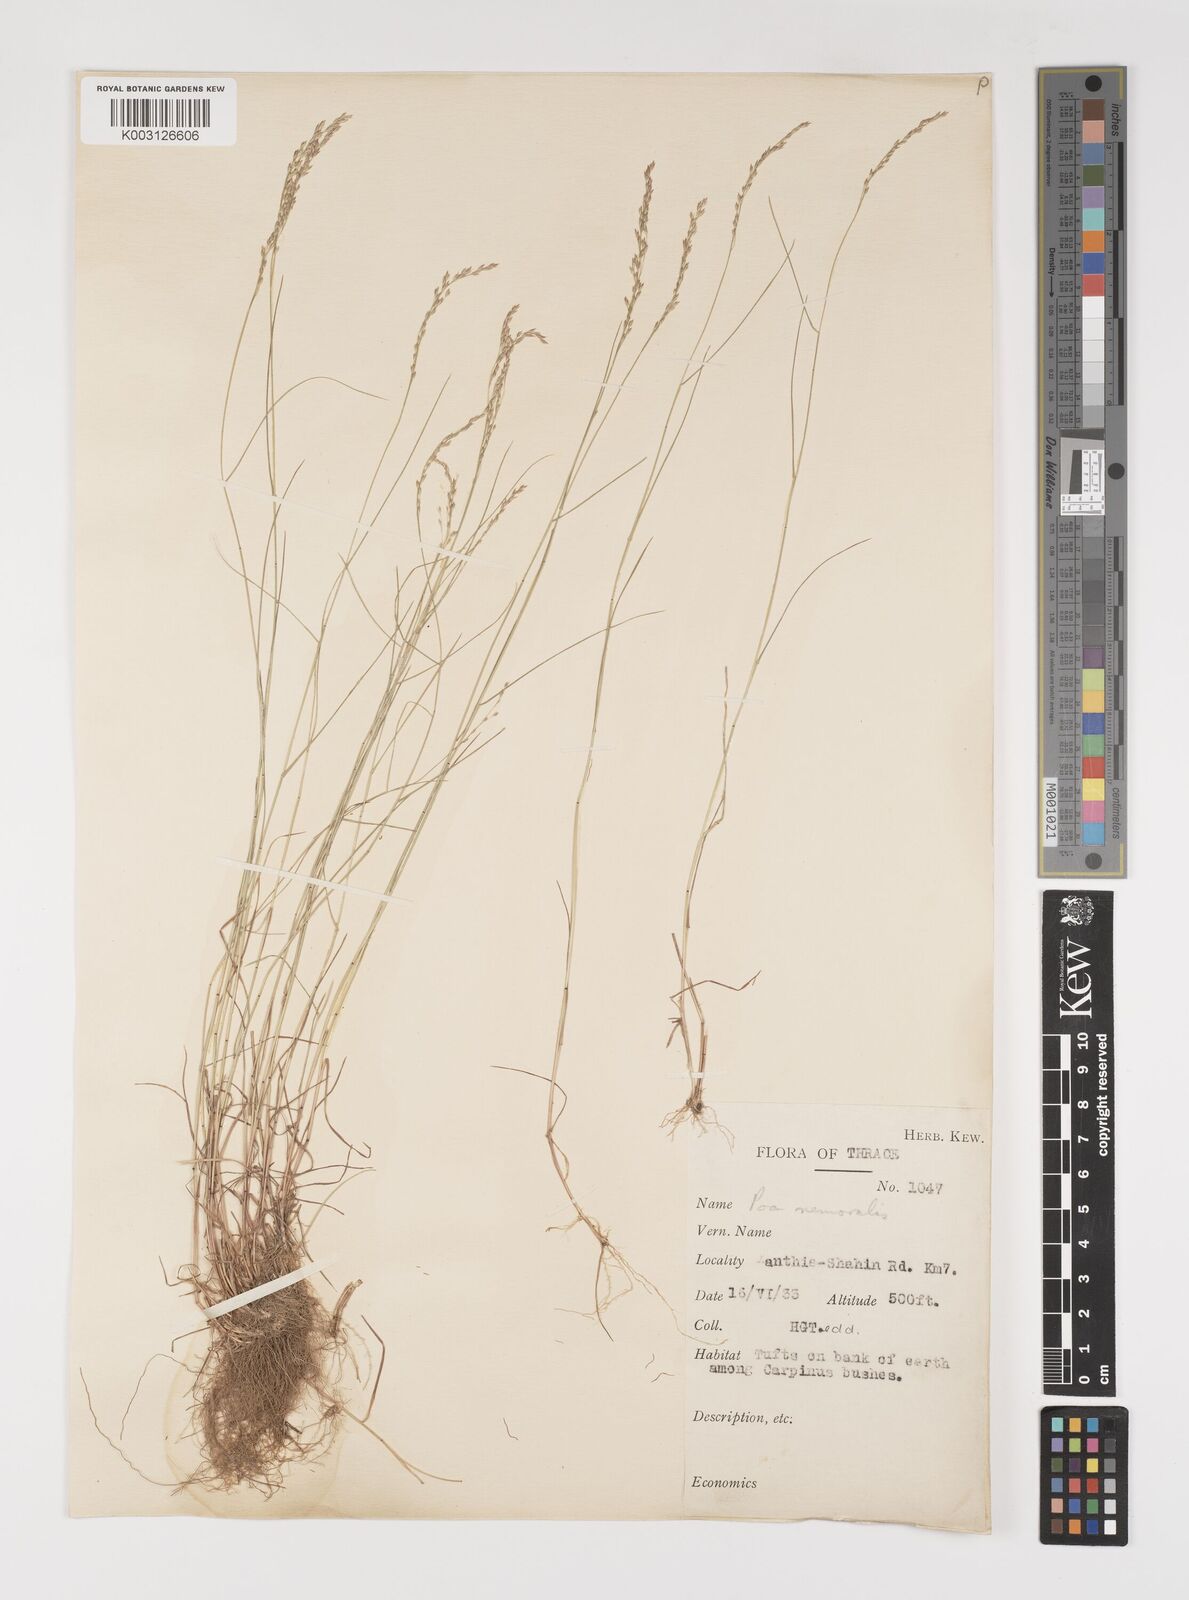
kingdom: Plantae
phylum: Tracheophyta
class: Liliopsida
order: Poales
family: Poaceae
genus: Poa
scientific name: Poa nemoralis
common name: Wood bluegrass
